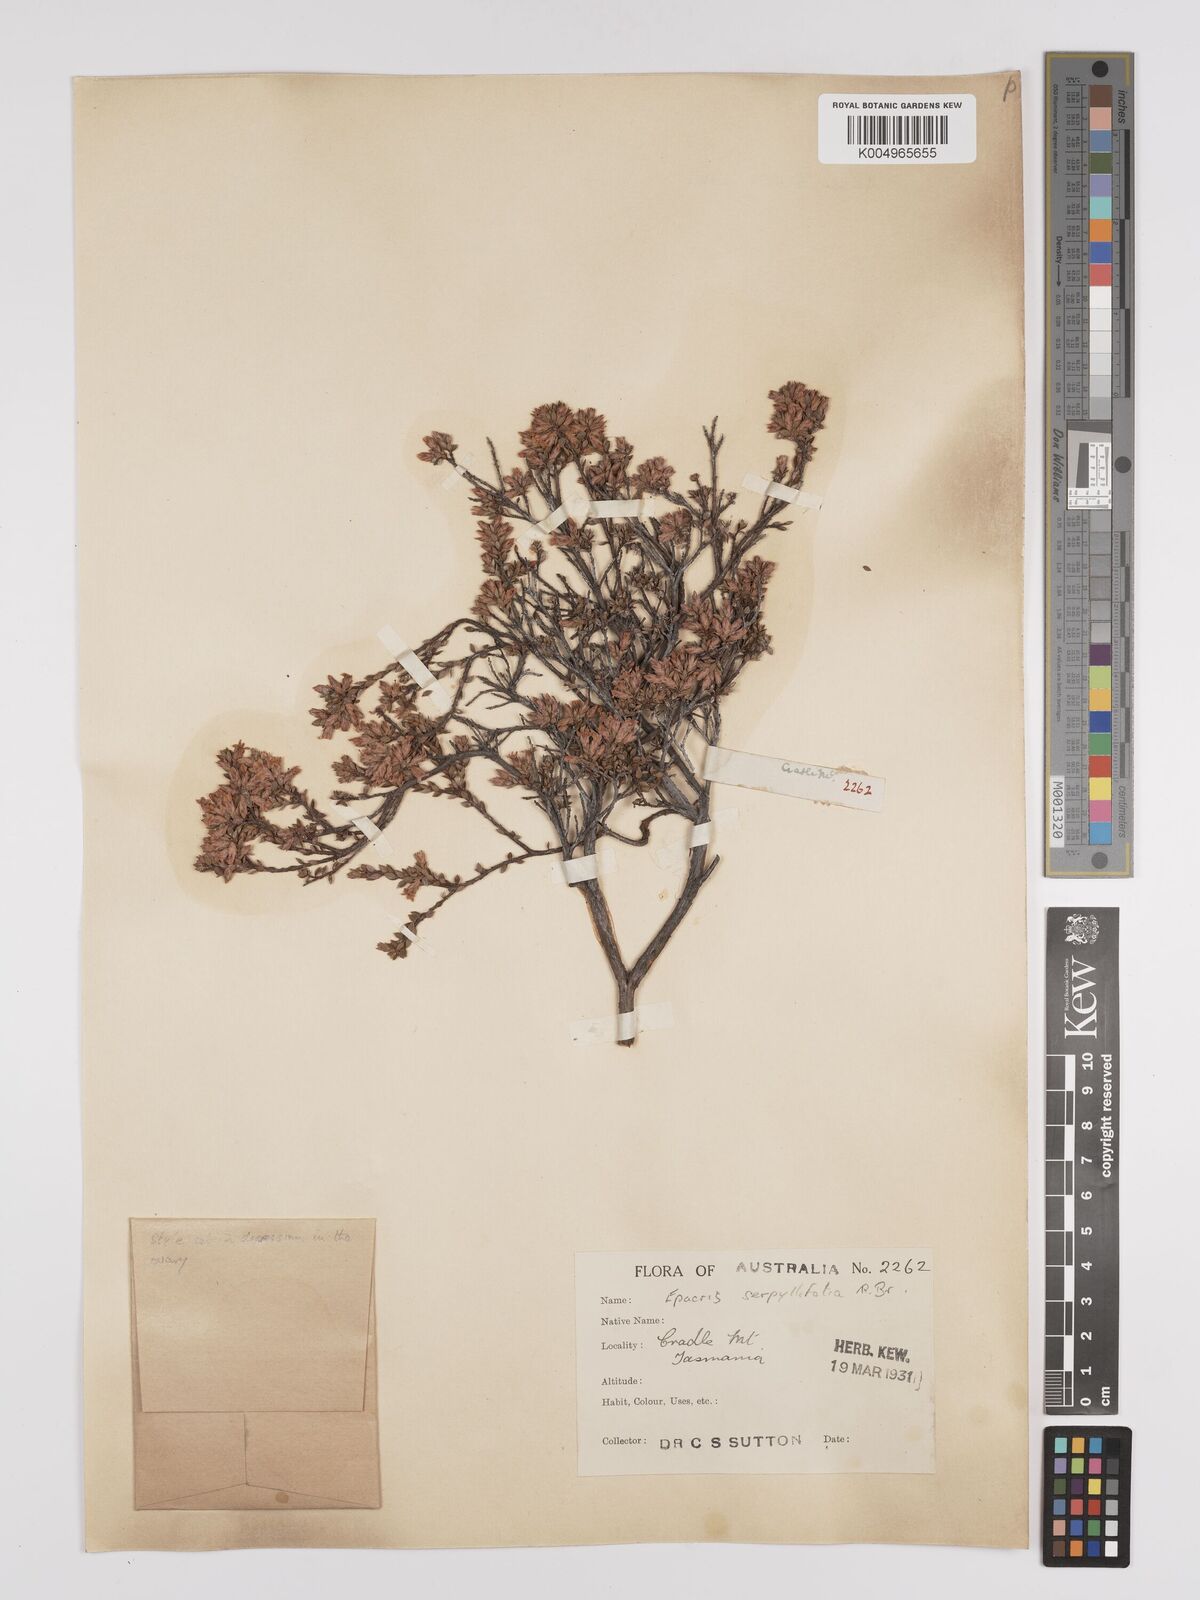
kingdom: Plantae
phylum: Tracheophyta
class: Magnoliopsida
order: Ericales
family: Ericaceae
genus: Epacris
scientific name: Epacris serpyllifolia
